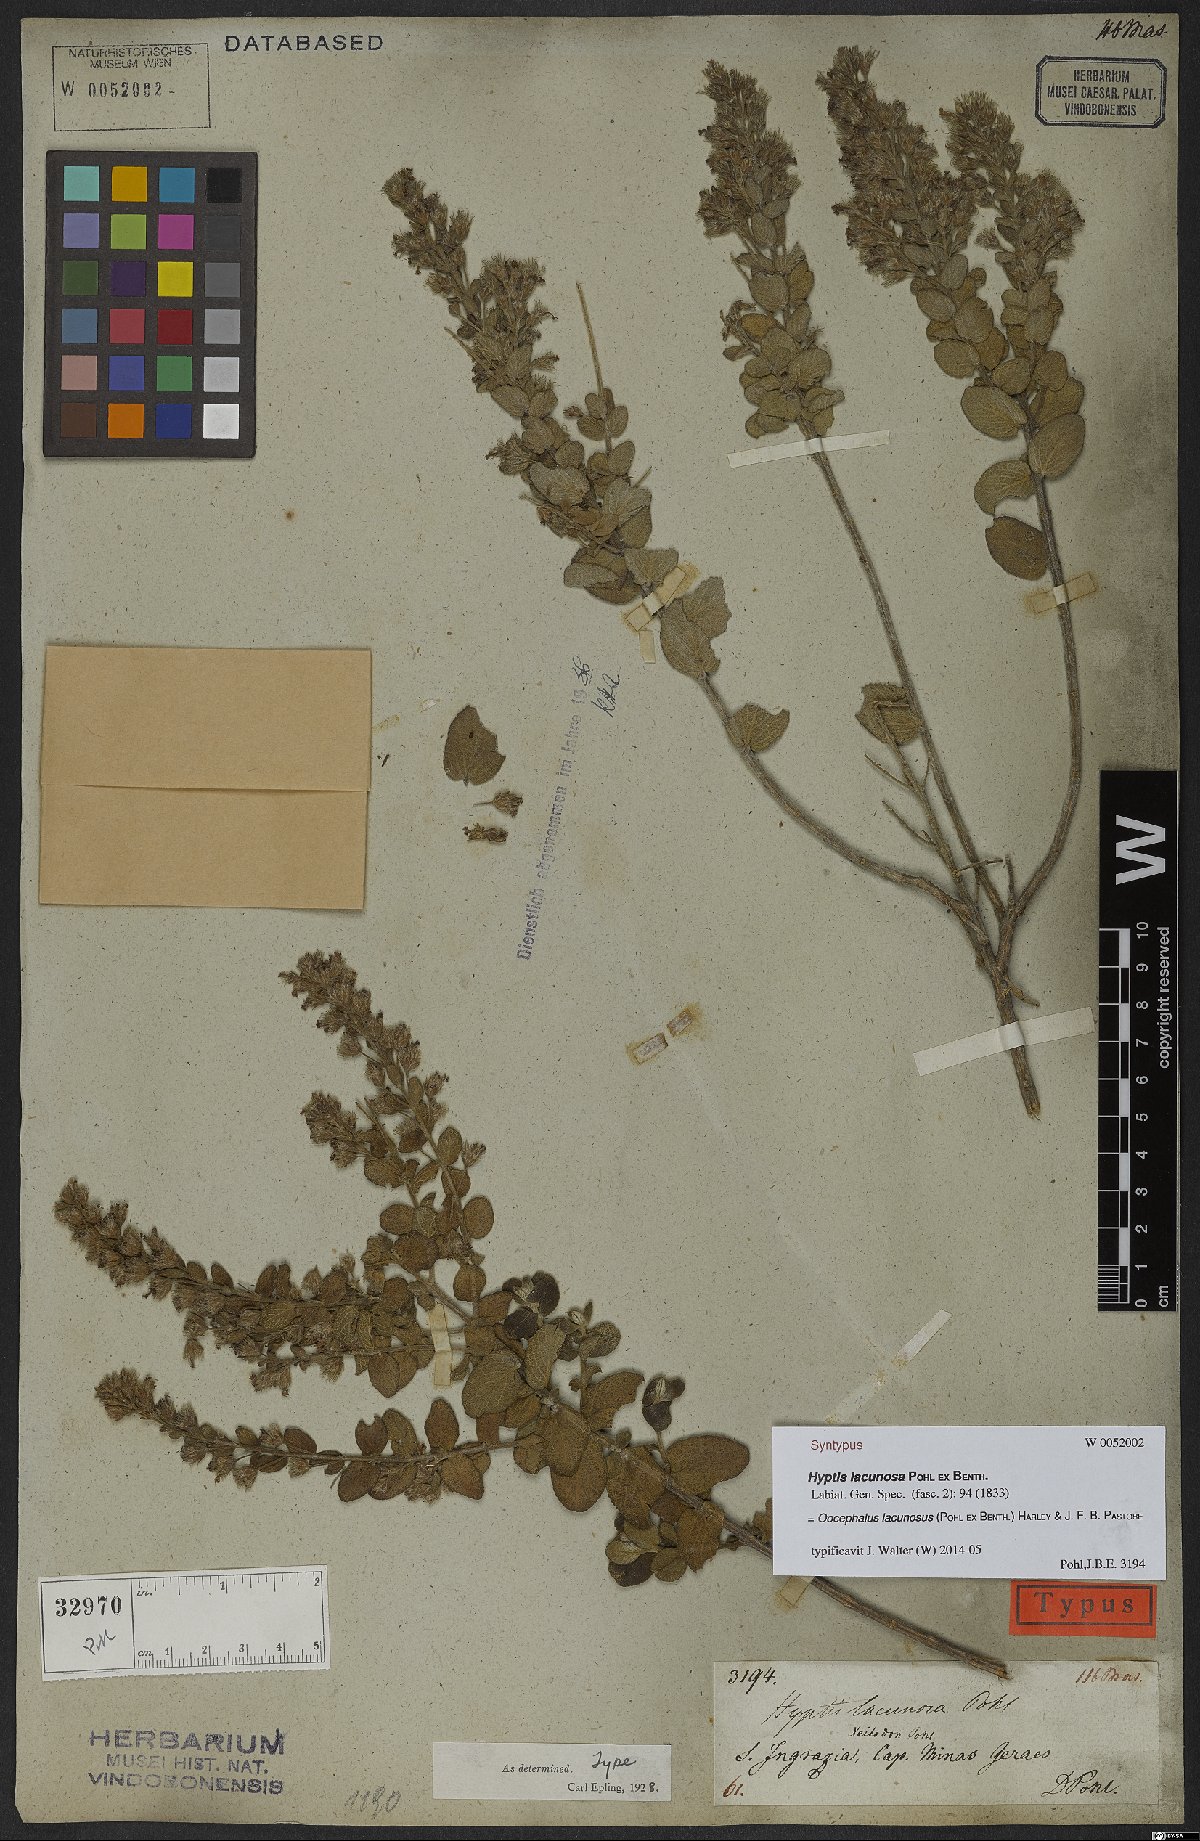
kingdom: Plantae
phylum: Tracheophyta
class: Magnoliopsida
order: Lamiales
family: Lamiaceae
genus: Oocephalus
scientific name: Oocephalus lacunosus
